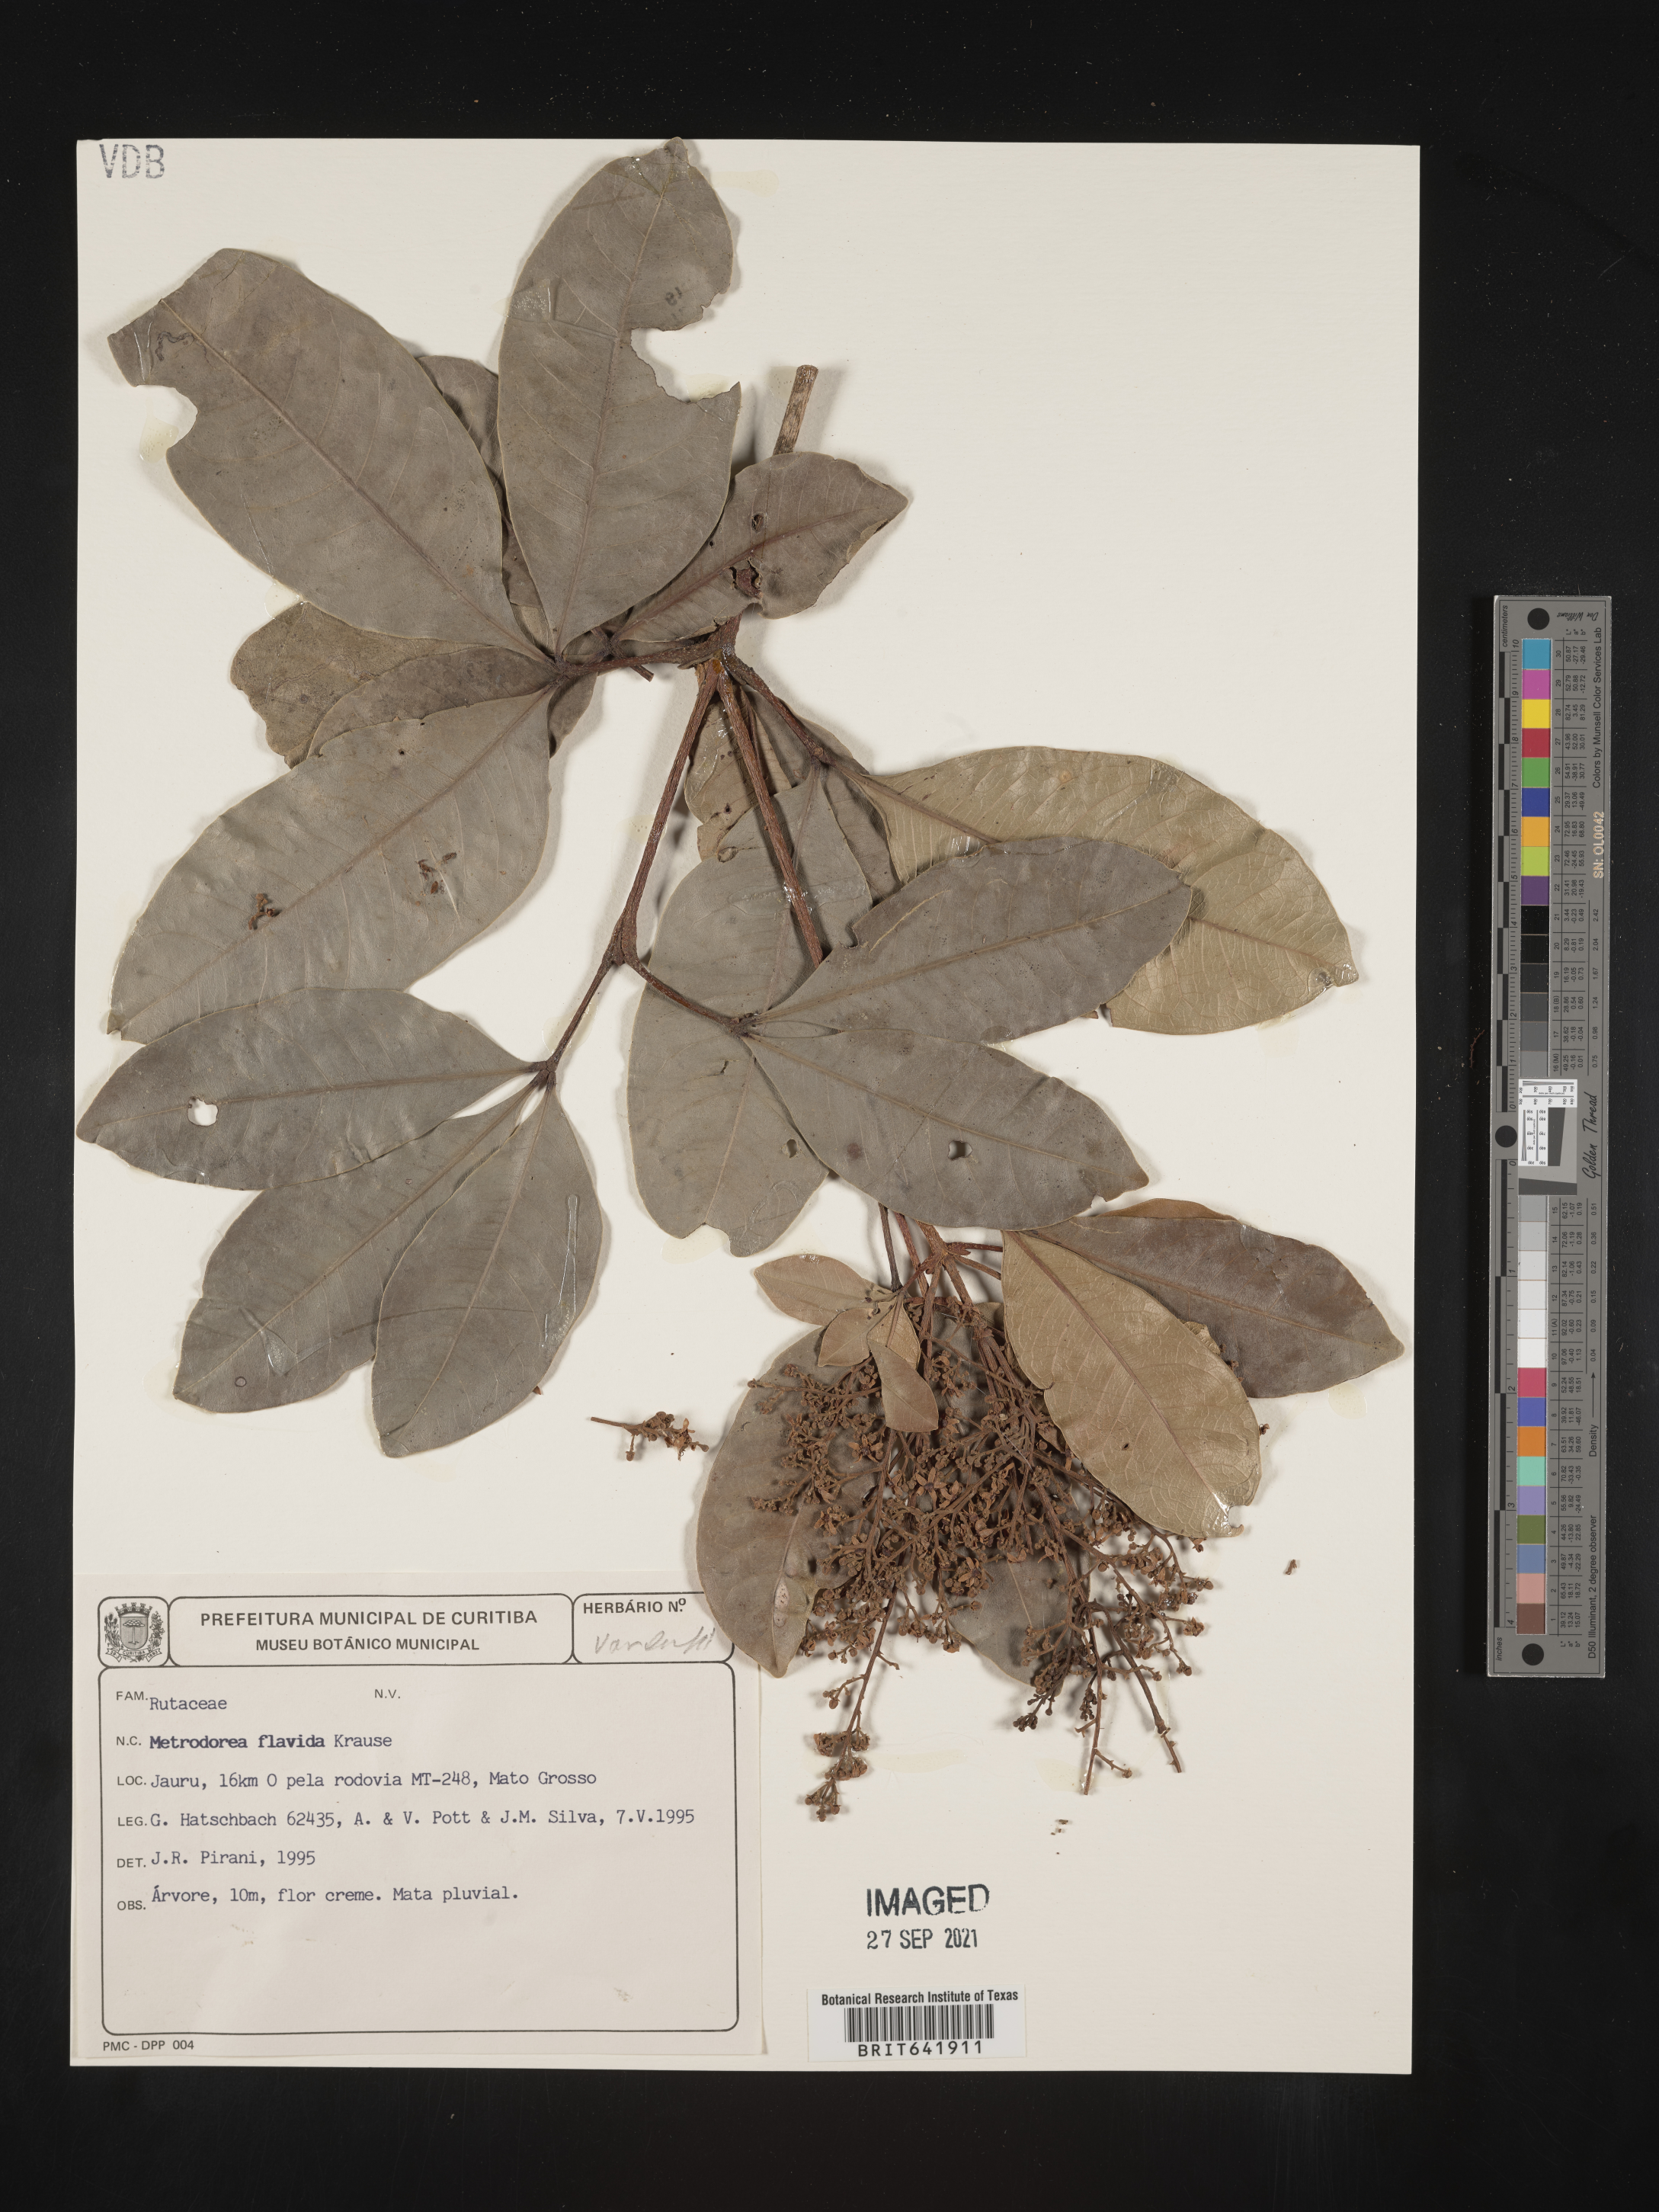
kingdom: Plantae
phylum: Tracheophyta
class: Magnoliopsida
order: Sapindales
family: Rutaceae
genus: Metrodorea
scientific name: Metrodorea
